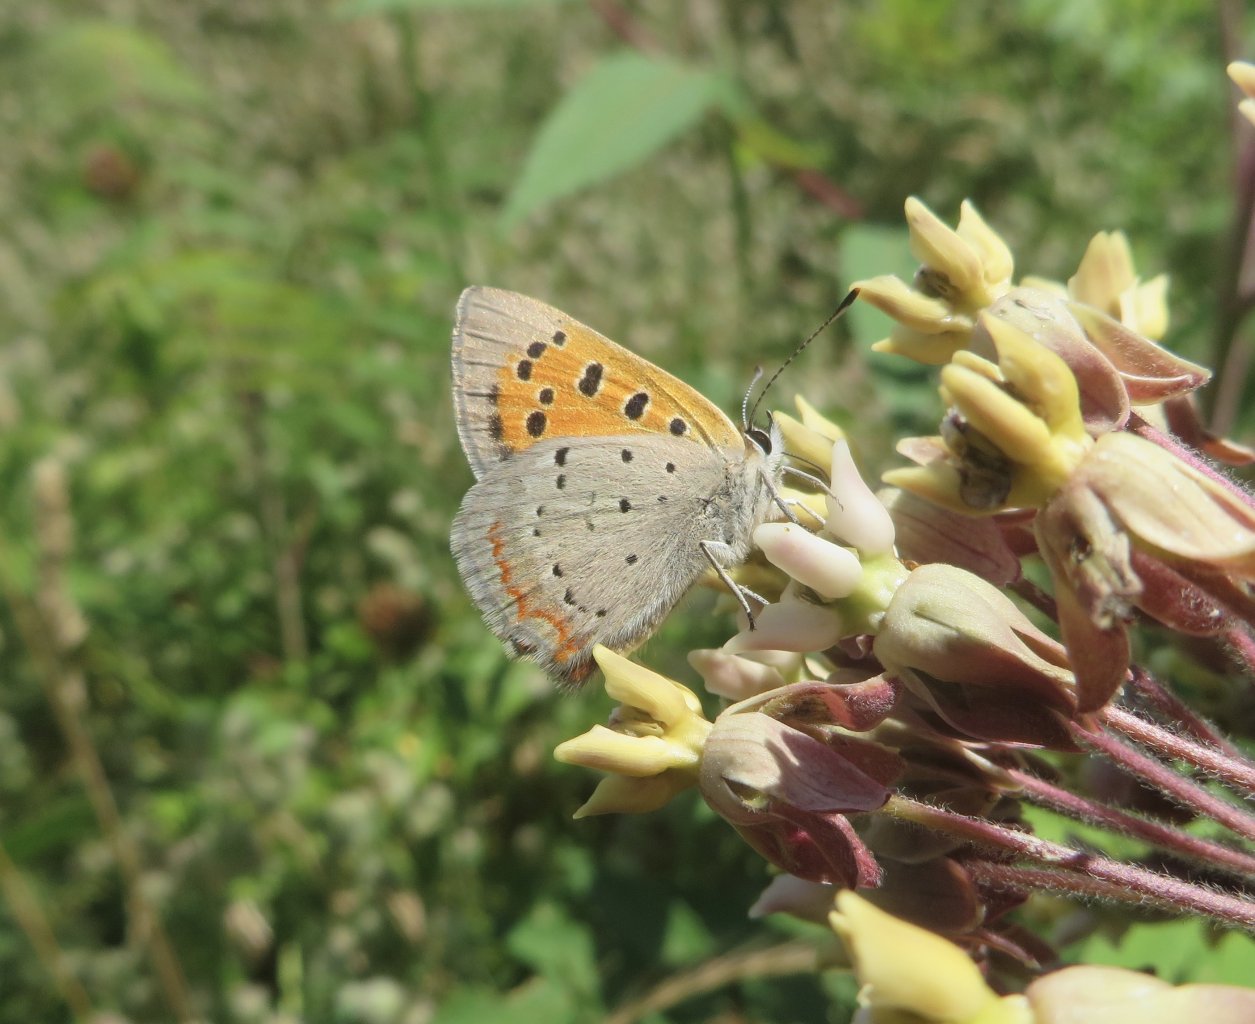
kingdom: Animalia
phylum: Arthropoda
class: Insecta
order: Lepidoptera
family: Lycaenidae
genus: Lycaena
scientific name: Lycaena phlaeas
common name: American Copper
